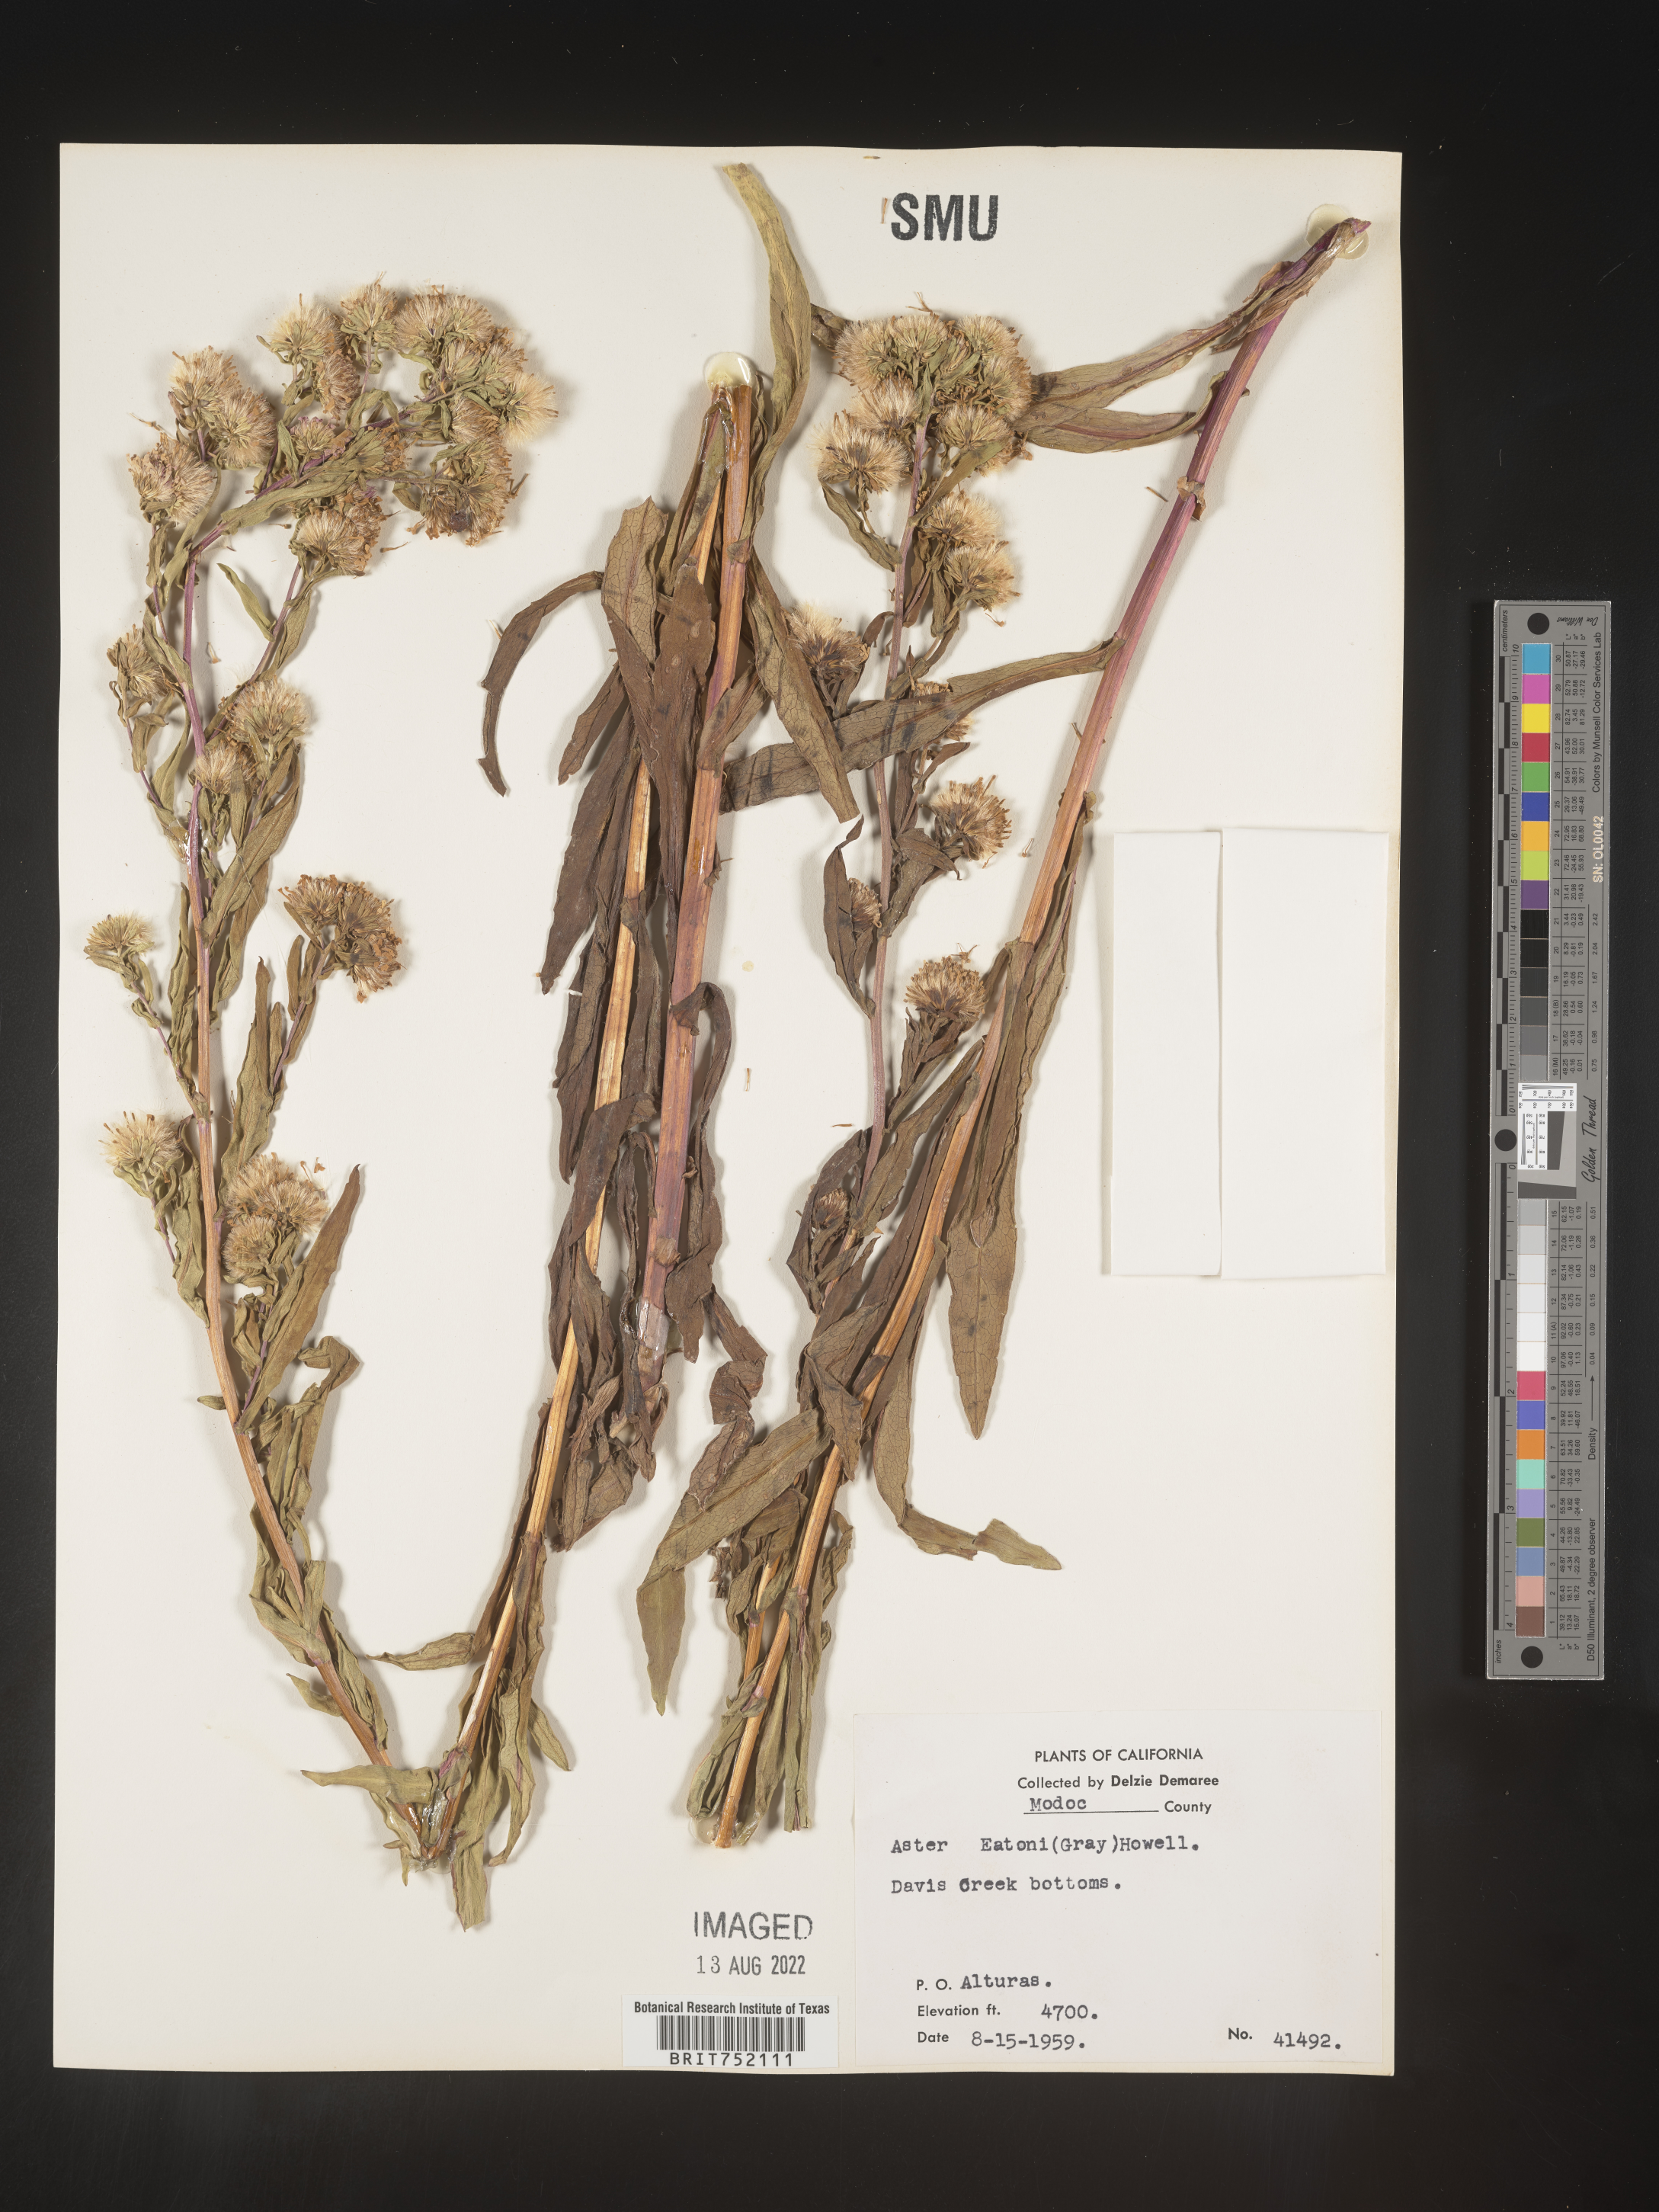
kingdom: Plantae
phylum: Tracheophyta
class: Magnoliopsida
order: Asterales
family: Asteraceae
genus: Symphyotrichum
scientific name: Symphyotrichum bracteolatum
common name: Eaton's aster
